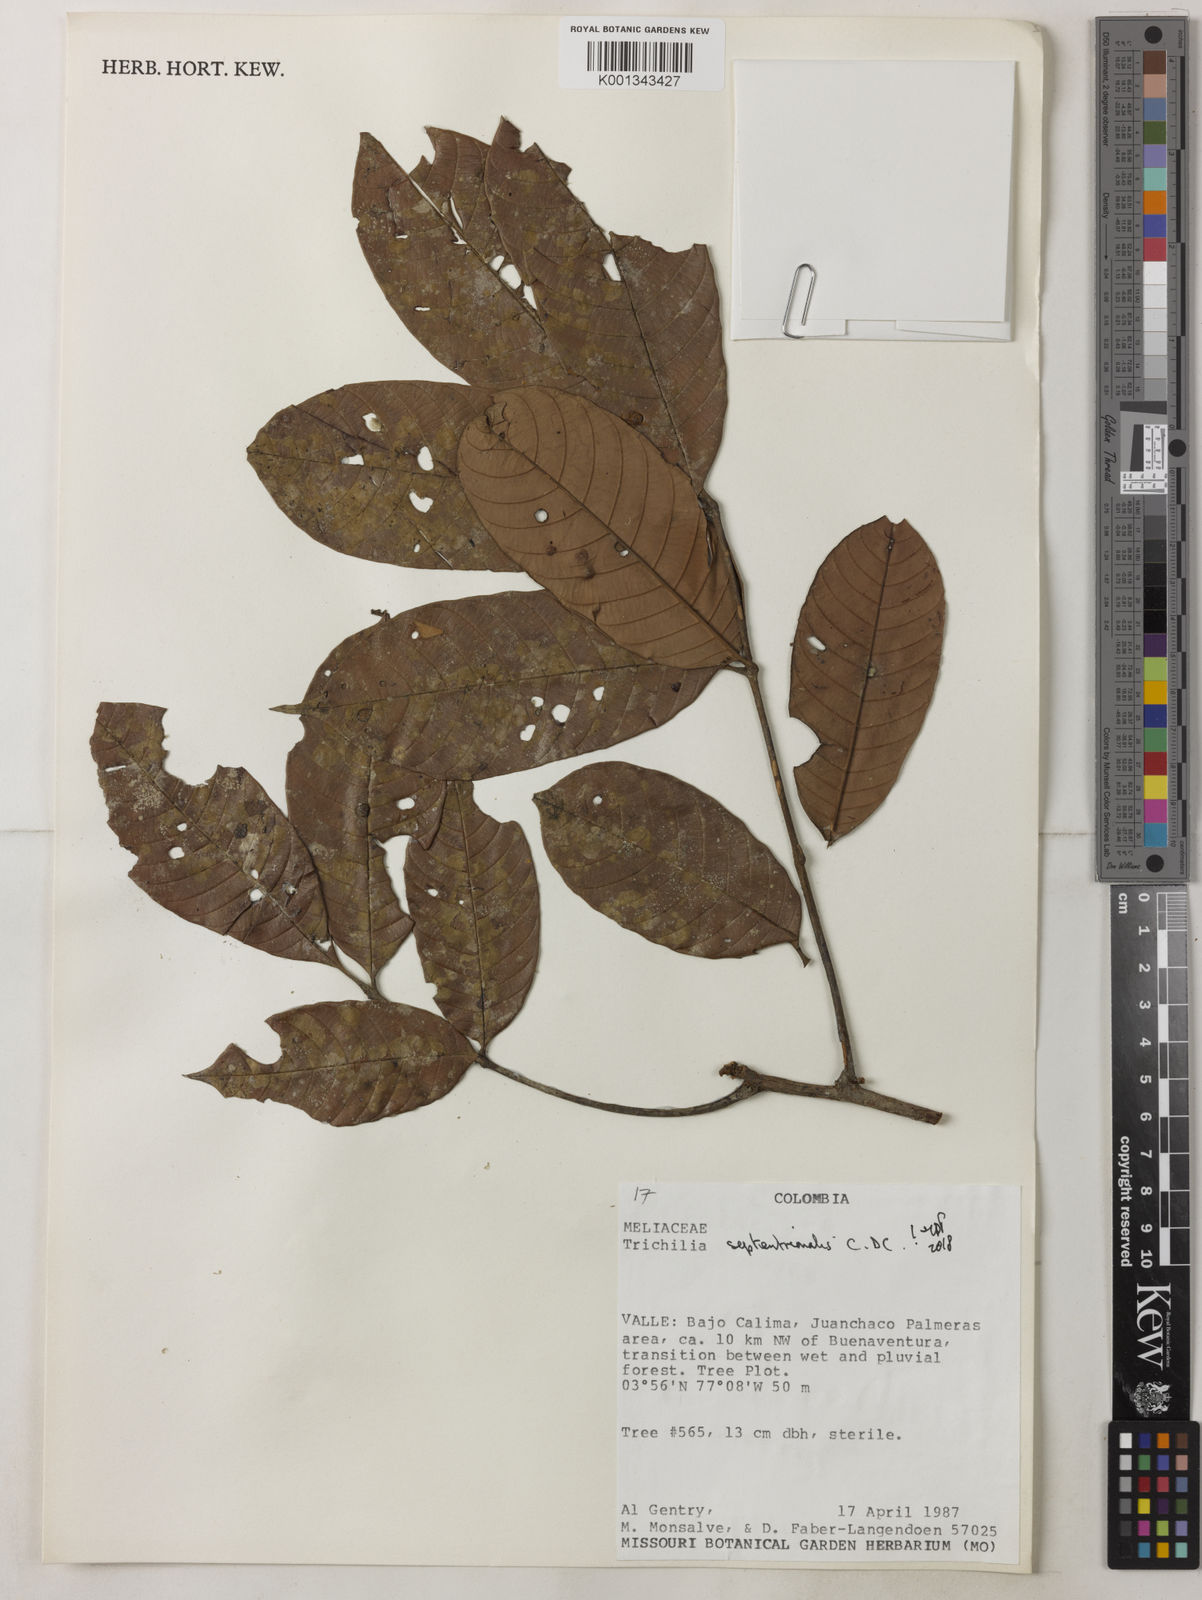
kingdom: Plantae
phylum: Tracheophyta
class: Magnoliopsida
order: Sapindales
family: Meliaceae
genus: Trichilia
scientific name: Trichilia septentrionalis
